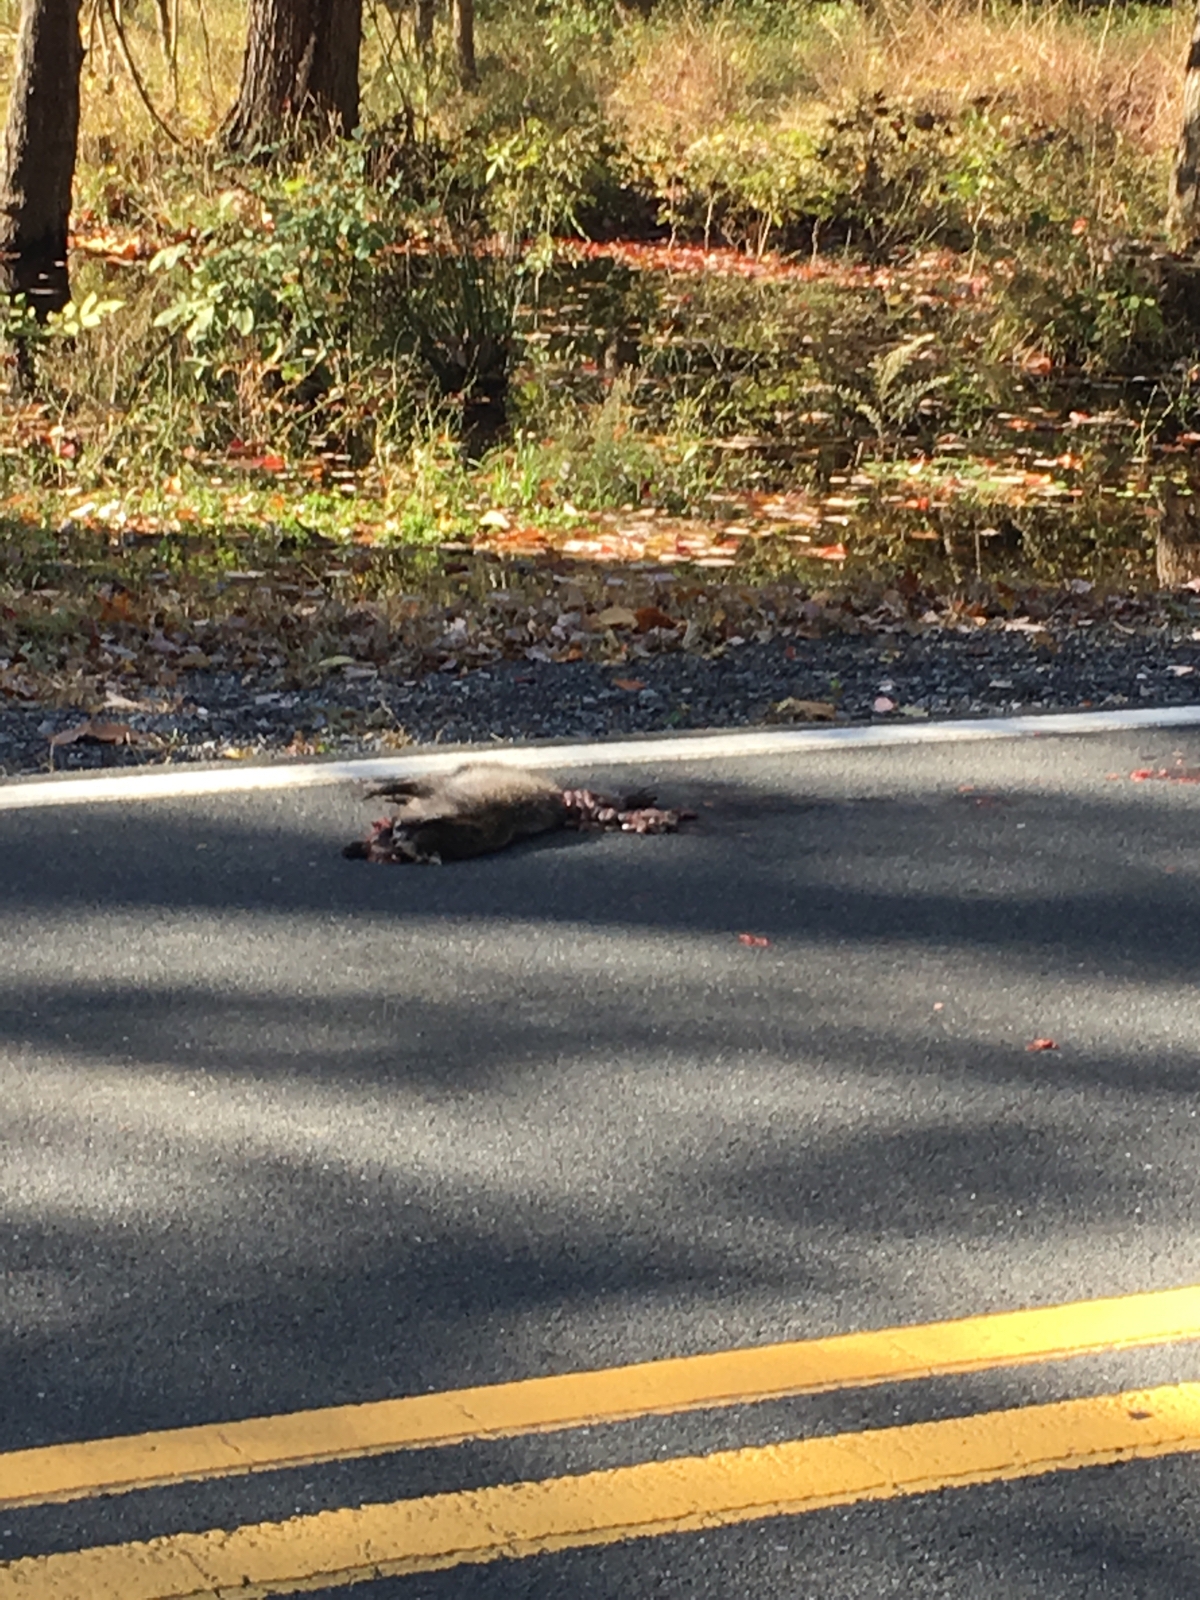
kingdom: Animalia
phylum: Chordata
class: Mammalia
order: Carnivora
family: Procyonidae
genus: Procyon
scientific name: Procyon lotor
